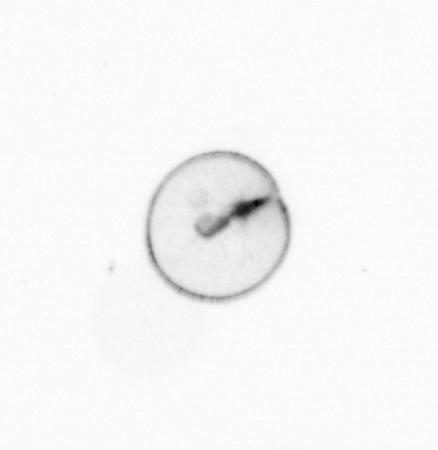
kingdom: Chromista
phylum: Myzozoa
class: Dinophyceae
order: Noctilucales
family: Noctilucaceae
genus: Noctiluca
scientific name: Noctiluca scintillans
